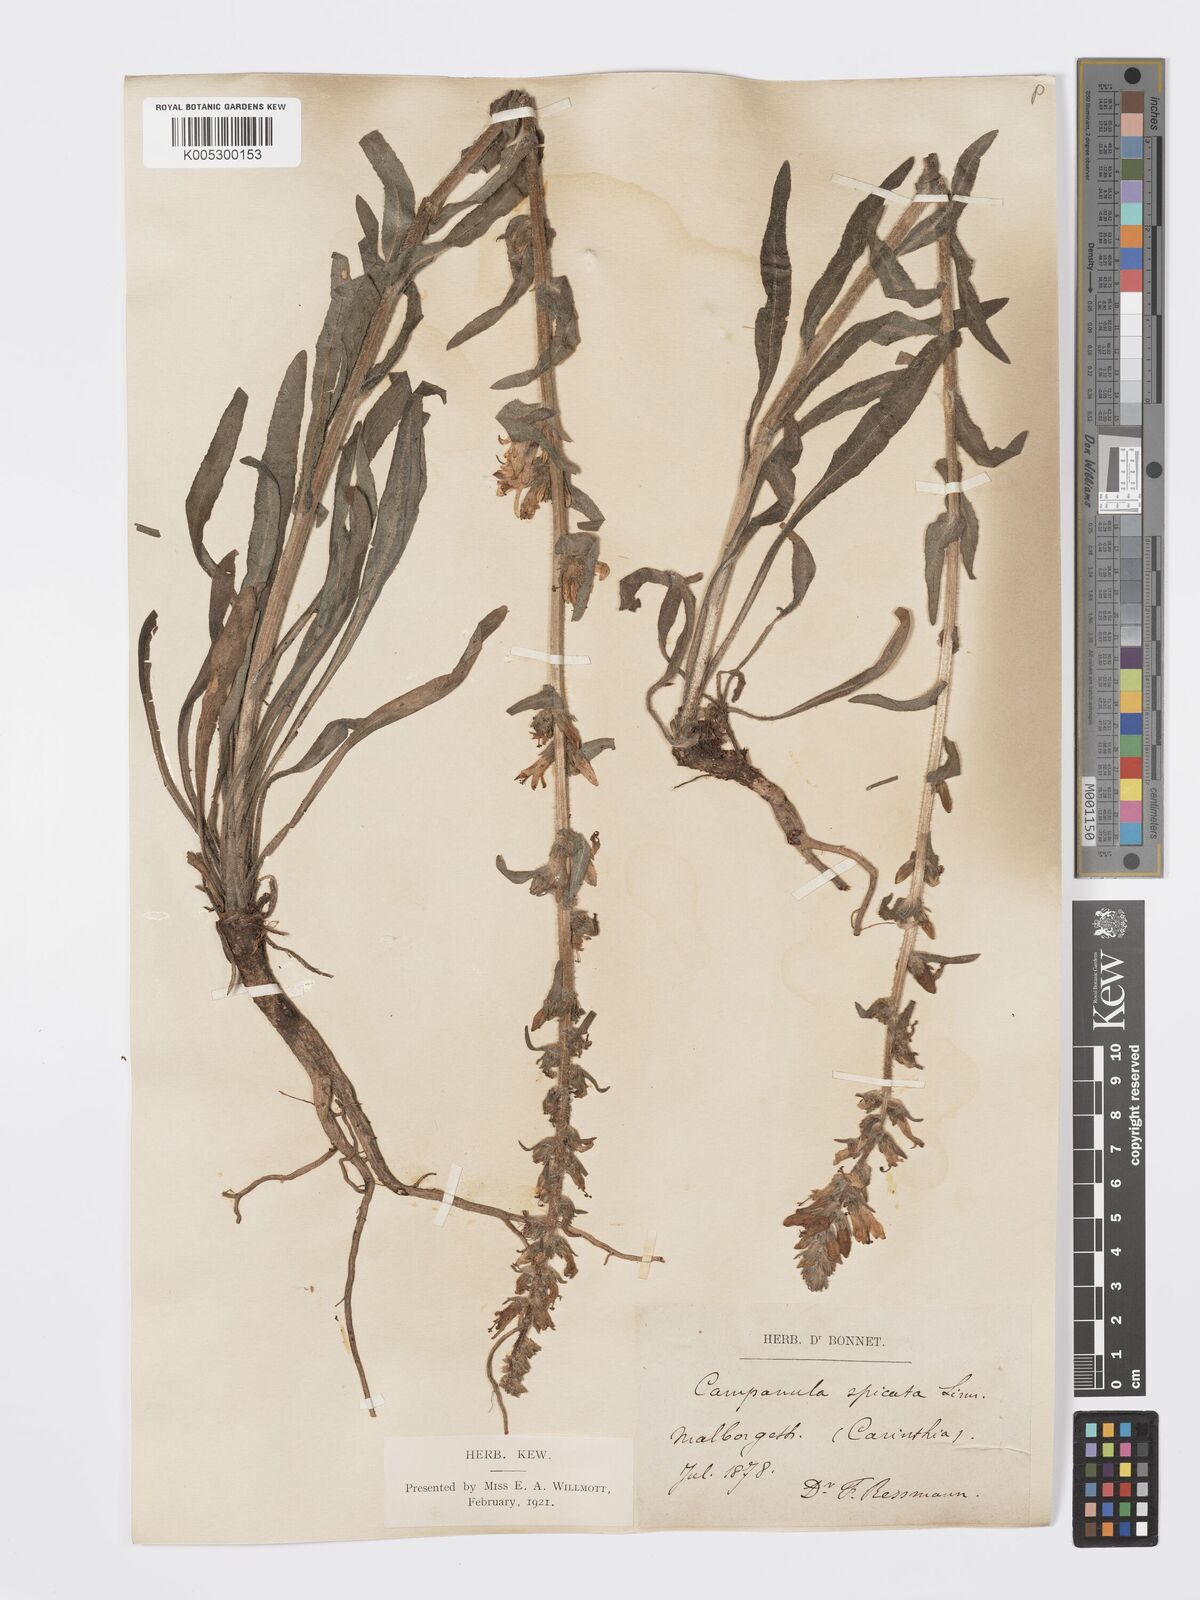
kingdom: Plantae
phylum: Tracheophyta
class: Magnoliopsida
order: Asterales
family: Campanulaceae
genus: Campanula
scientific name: Campanula macrostachya
